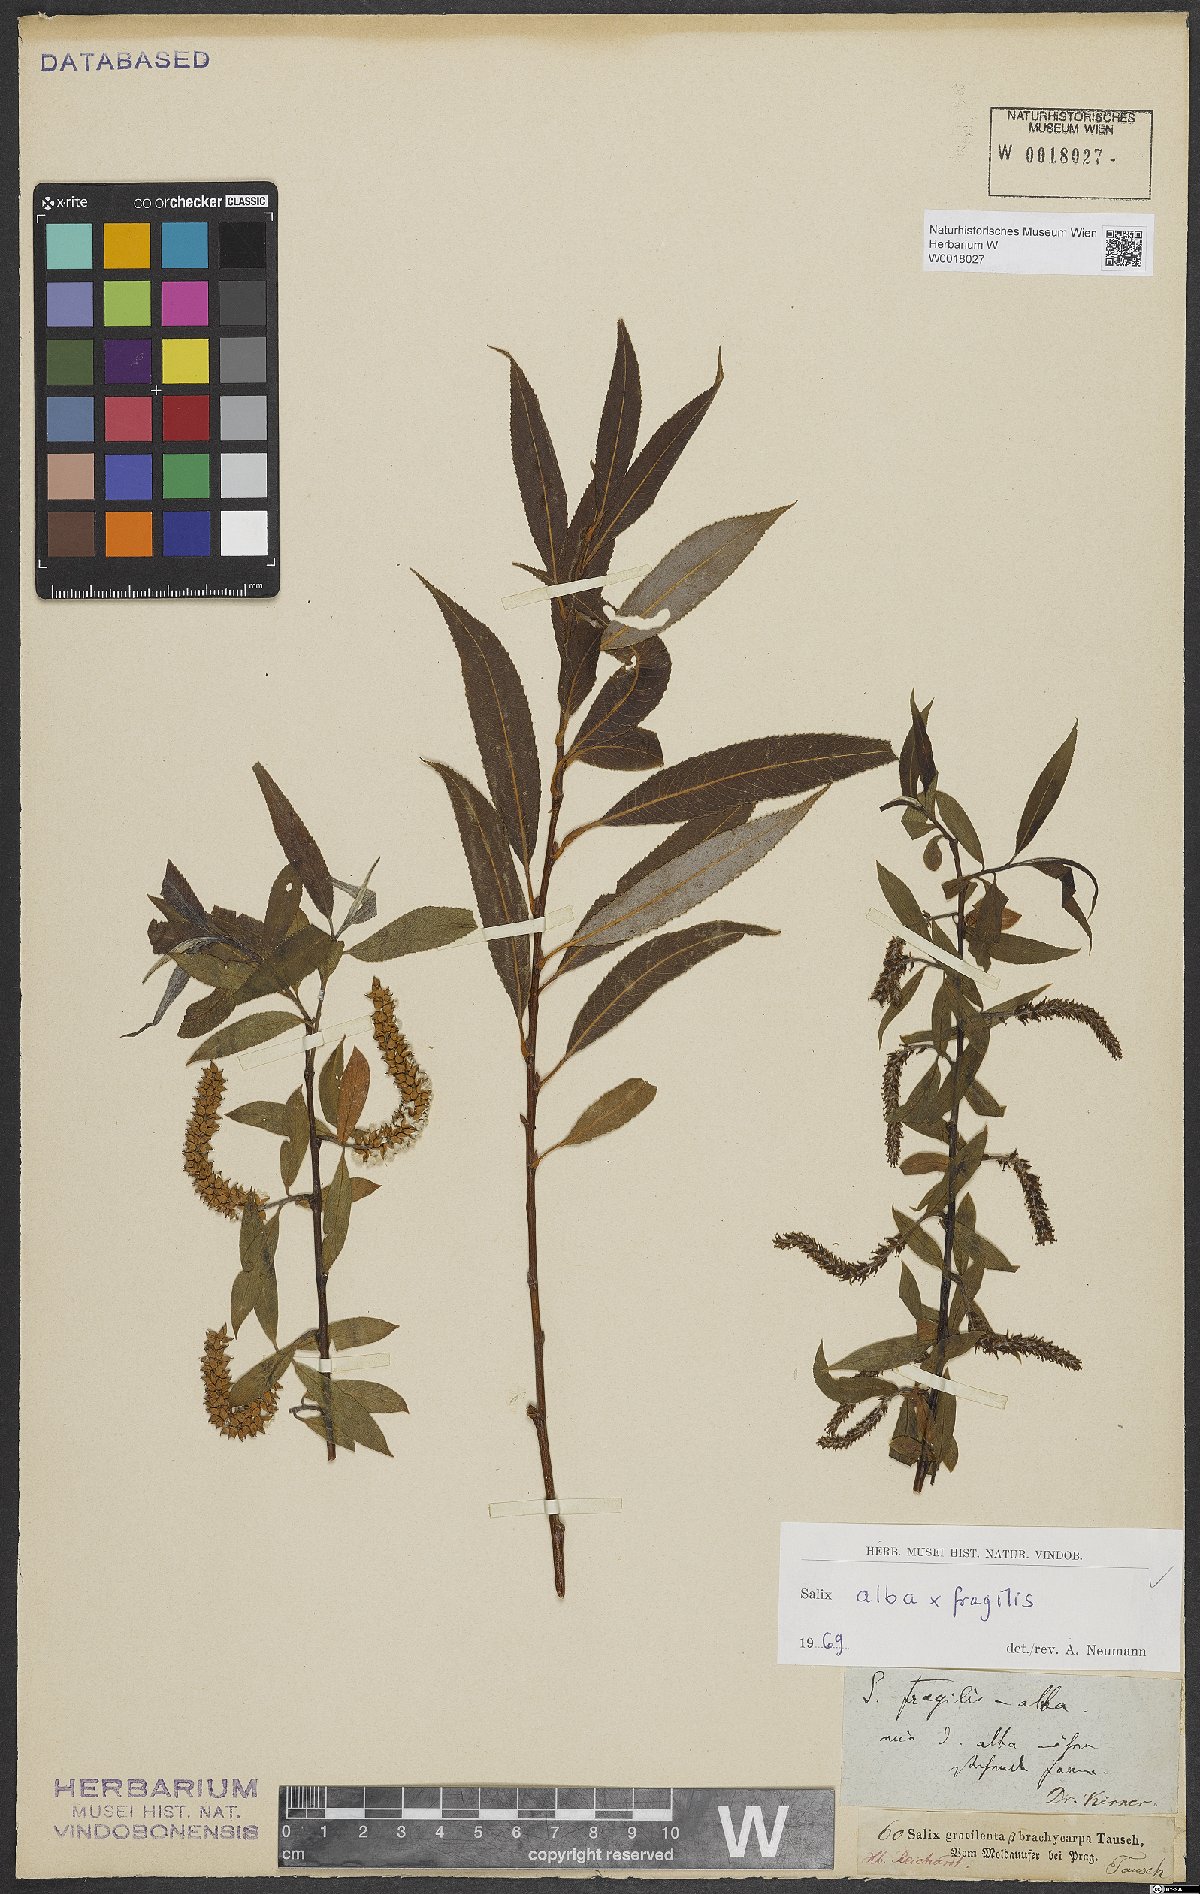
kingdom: Plantae
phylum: Tracheophyta
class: Magnoliopsida
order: Malpighiales
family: Salicaceae
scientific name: Salicaceae
